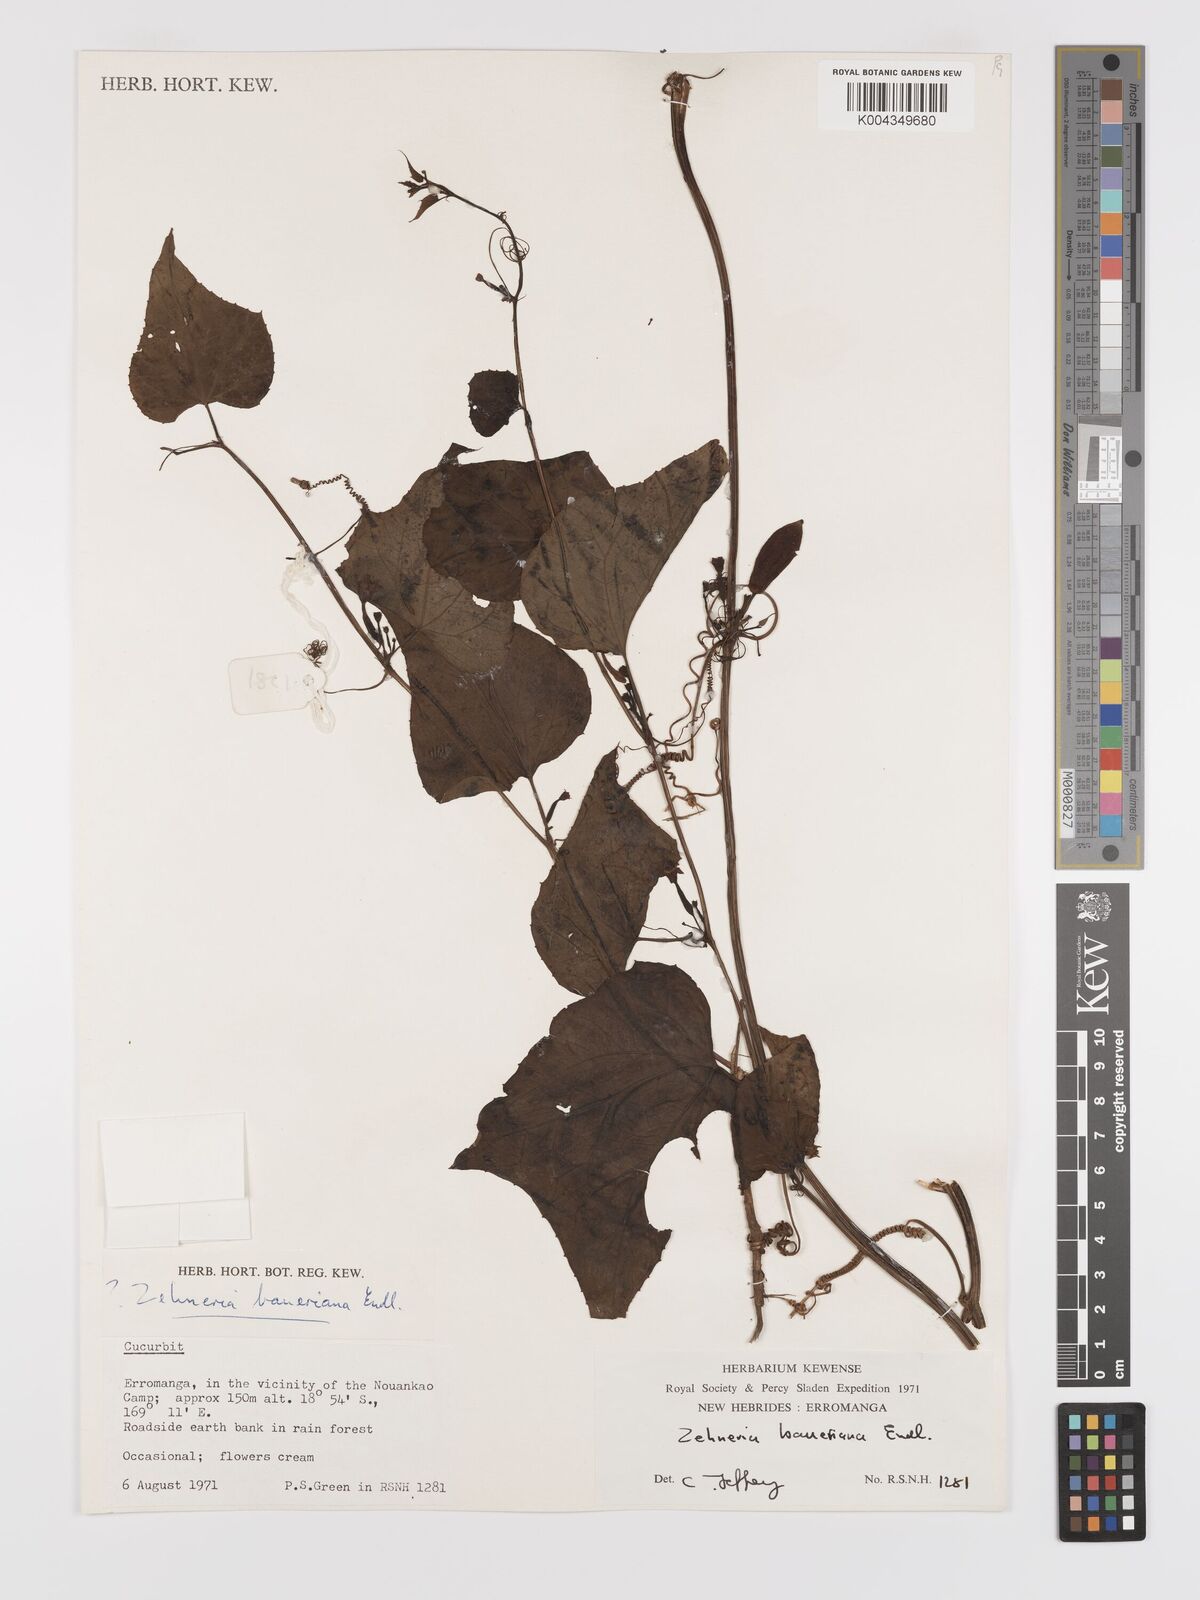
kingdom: Plantae
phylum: Tracheophyta
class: Magnoliopsida
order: Cucurbitales
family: Cucurbitaceae
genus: Zehneria
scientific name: Zehneria mucronata
